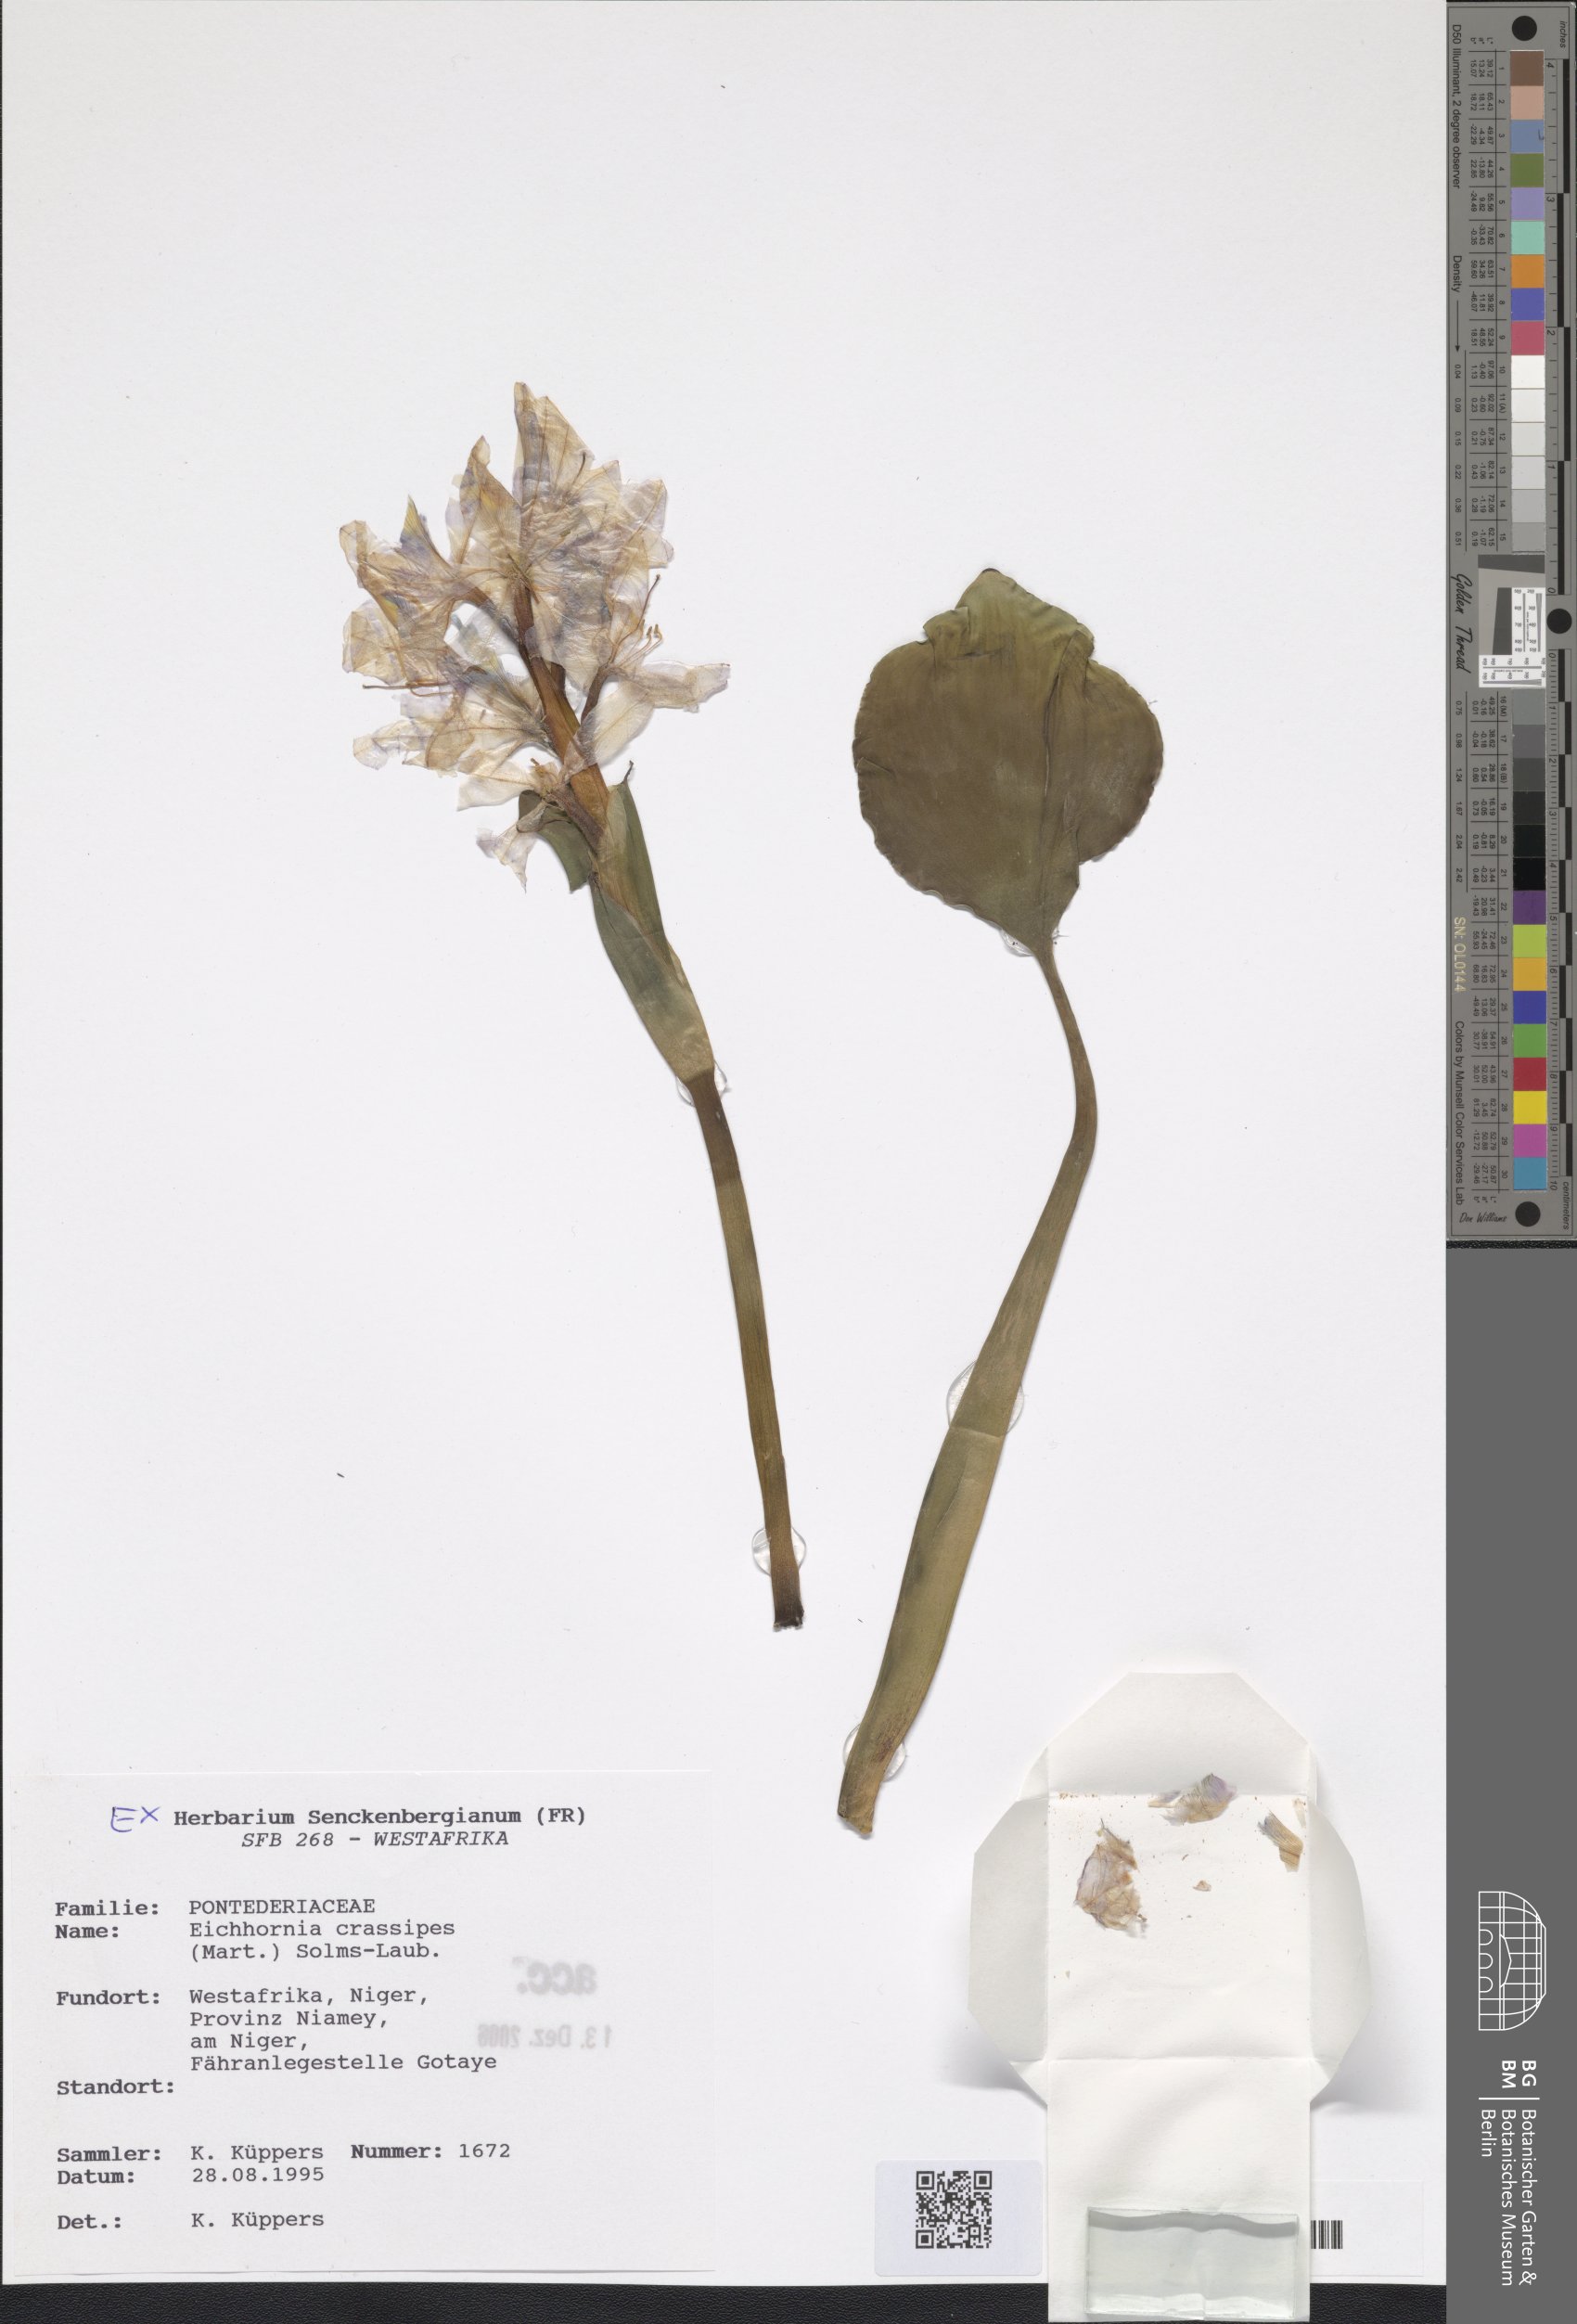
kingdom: Plantae
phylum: Tracheophyta
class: Liliopsida
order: Commelinales
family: Pontederiaceae
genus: Pontederia
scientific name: Pontederia crassipes
